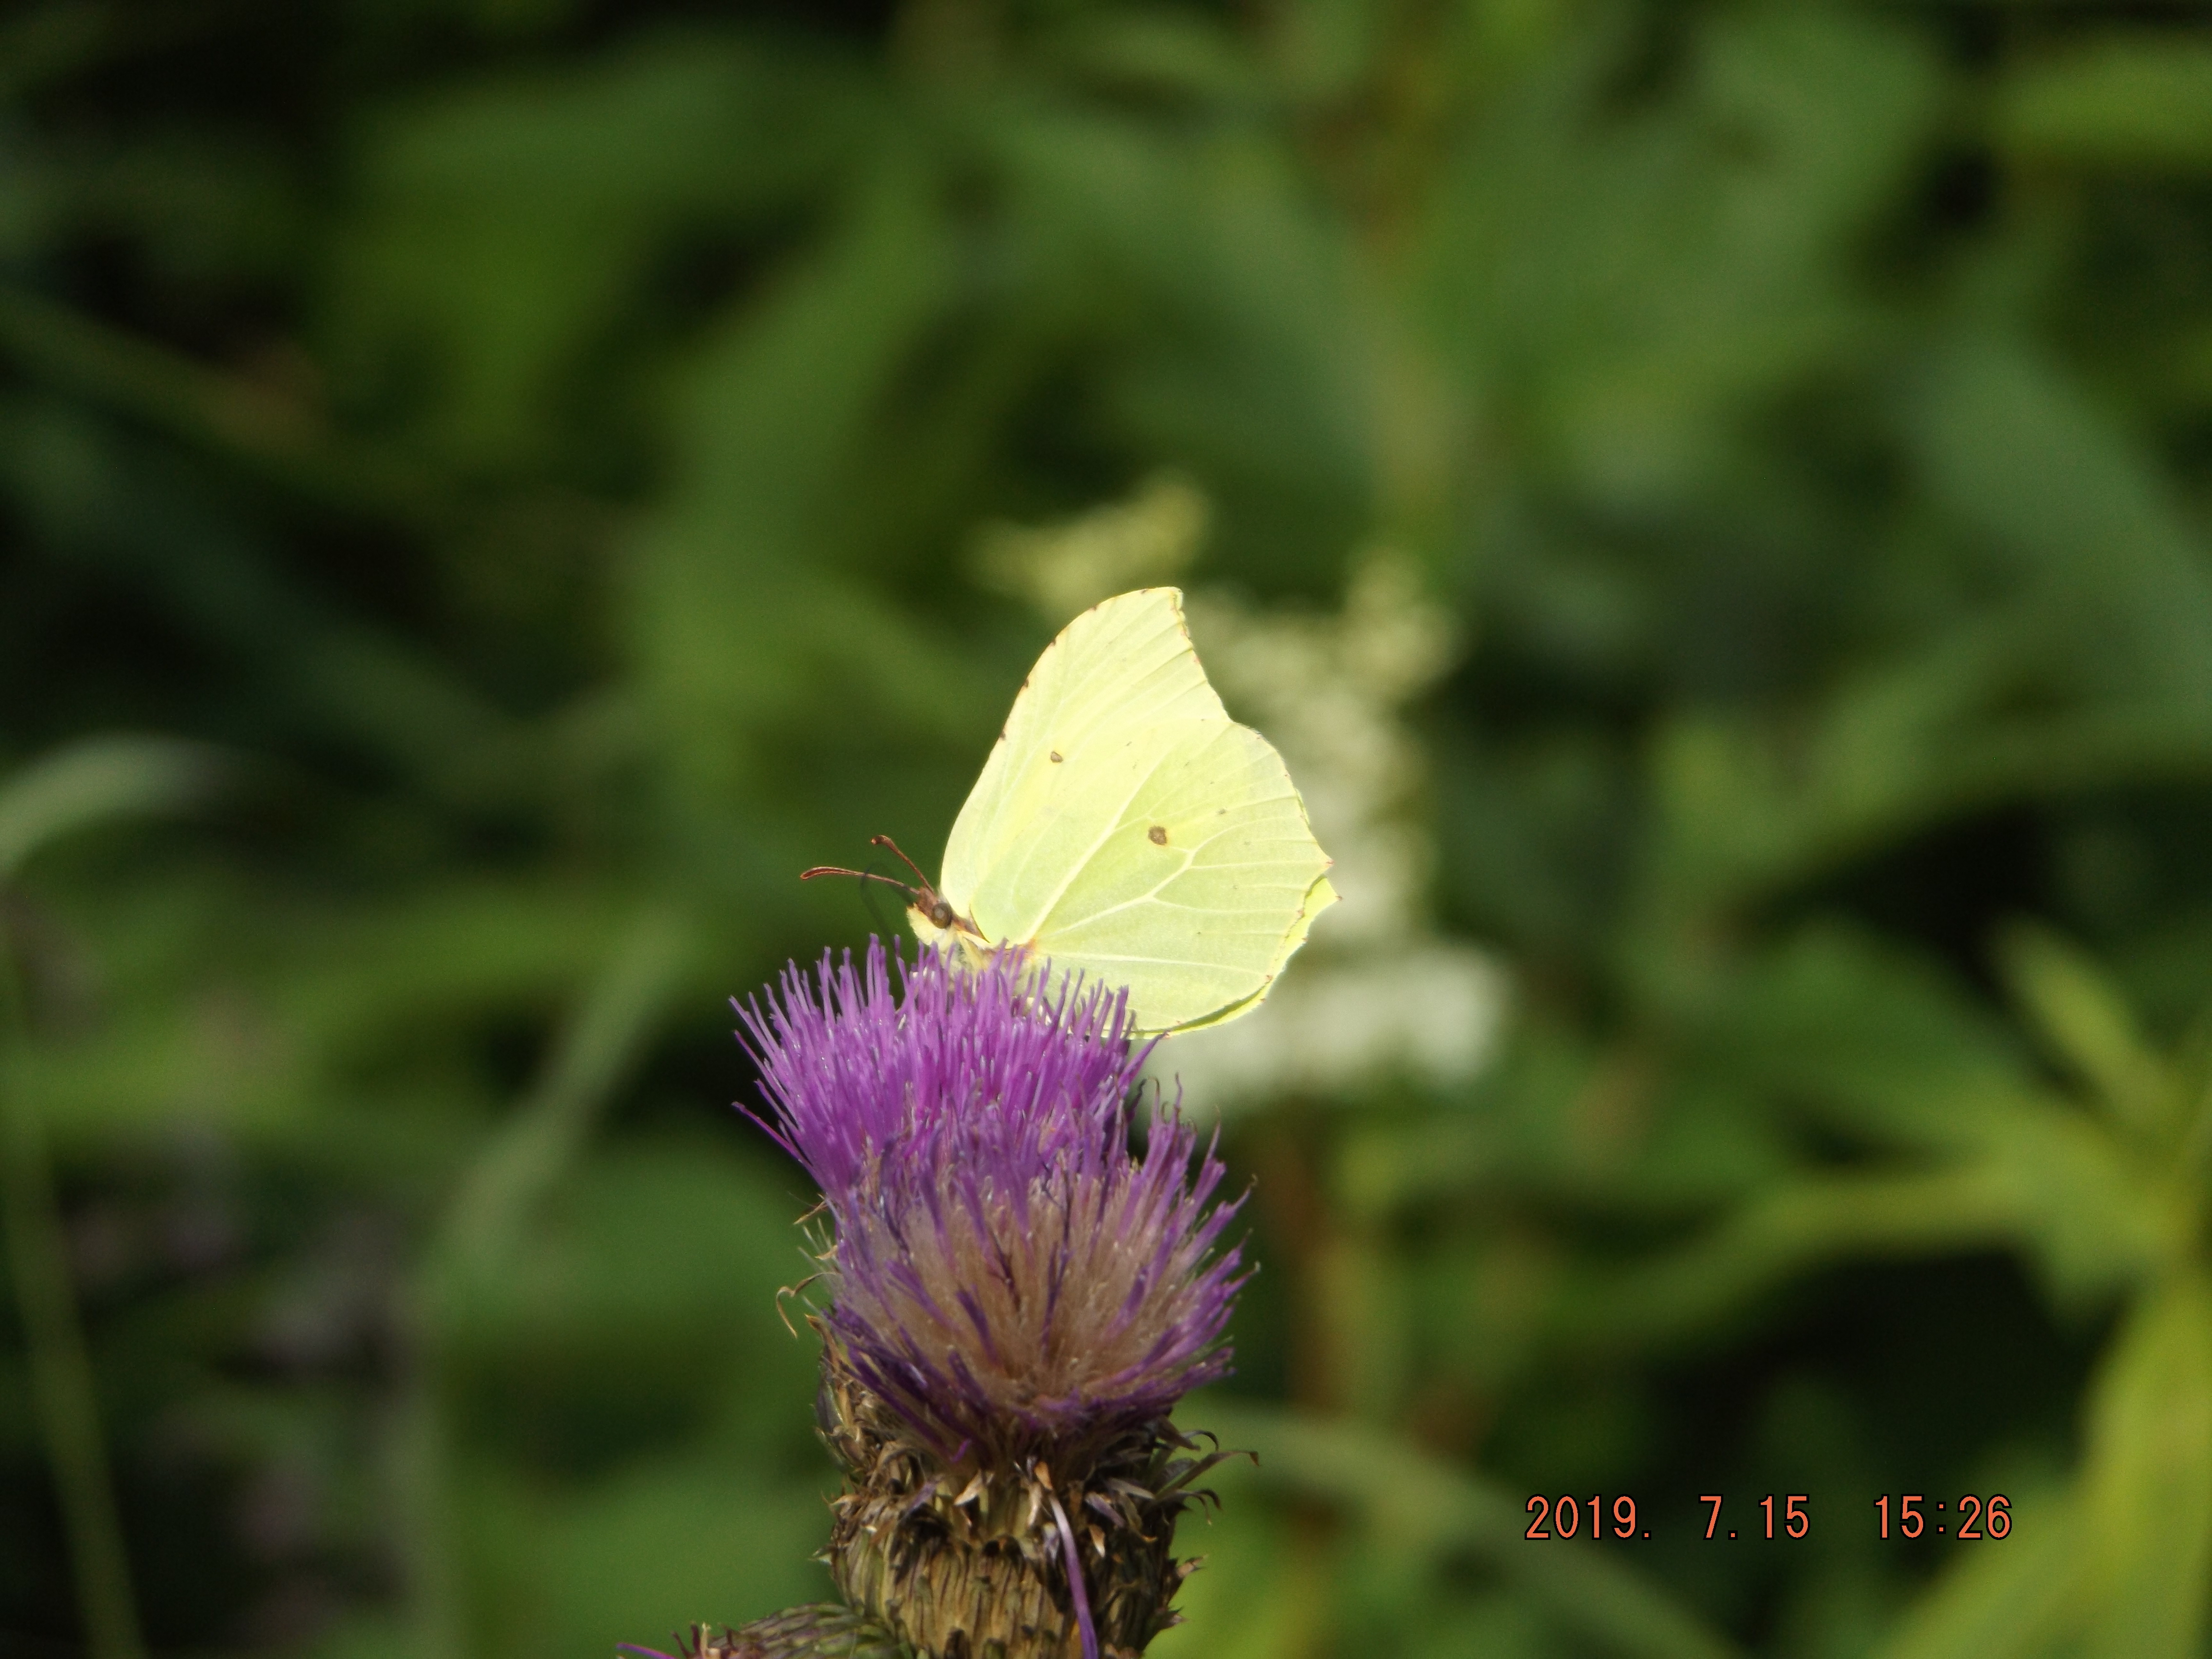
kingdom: Animalia
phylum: Arthropoda
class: Insecta
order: Lepidoptera
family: Pieridae
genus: Gonepteryx
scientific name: Gonepteryx rhamni
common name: Brimstone
